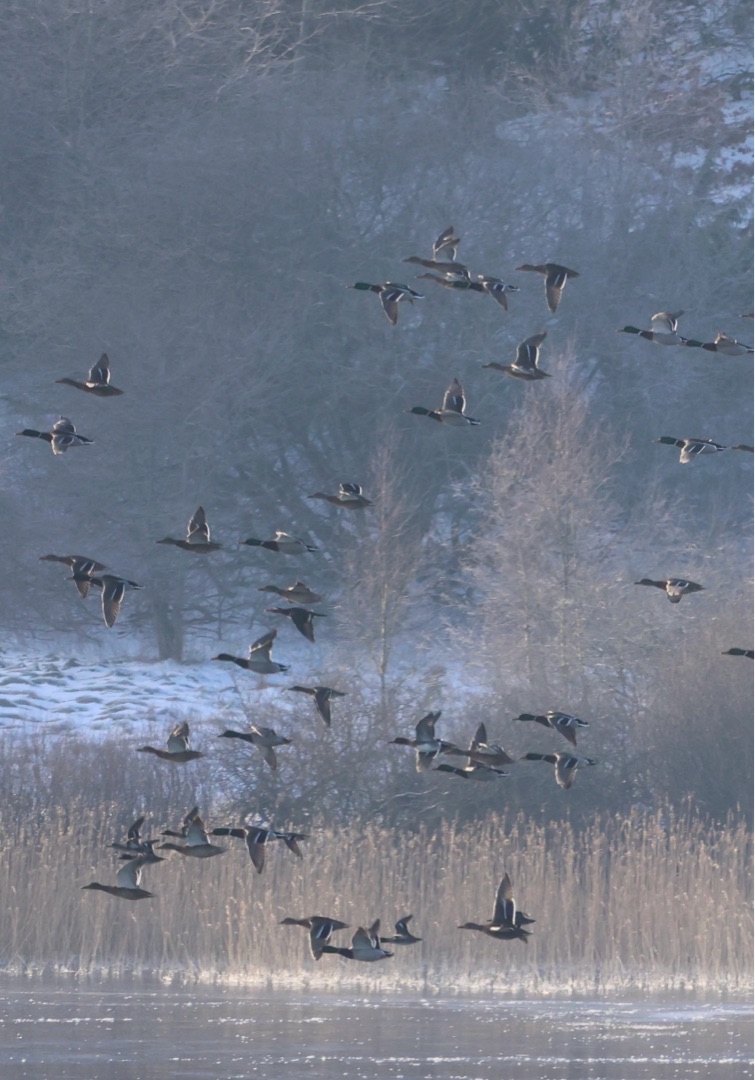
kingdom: Animalia
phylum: Chordata
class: Aves
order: Anseriformes
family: Anatidae
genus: Anas
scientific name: Anas platyrhynchos
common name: Gråand
